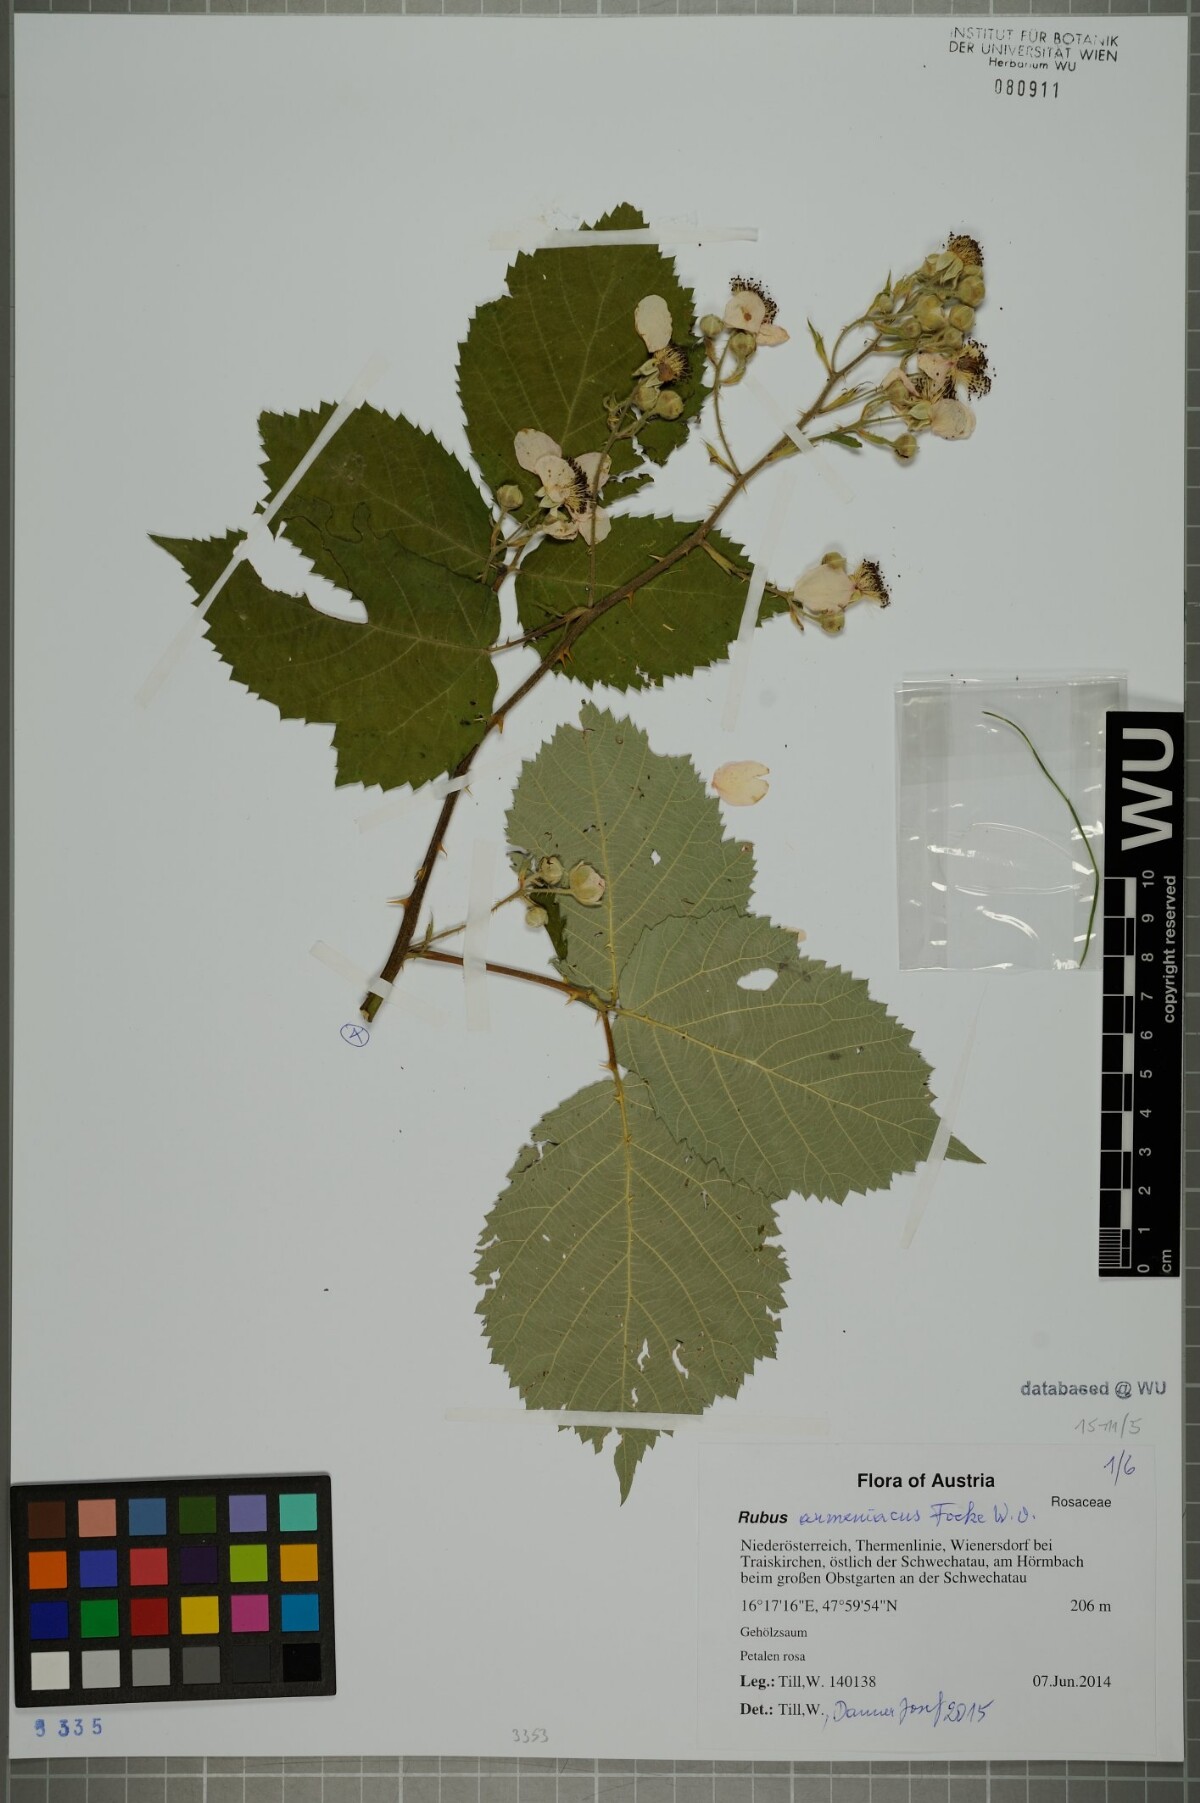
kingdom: Plantae
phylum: Tracheophyta
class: Magnoliopsida
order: Rosales
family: Rosaceae
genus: Rubus
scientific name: Rubus armeniacus
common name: Himalayan blackberry
